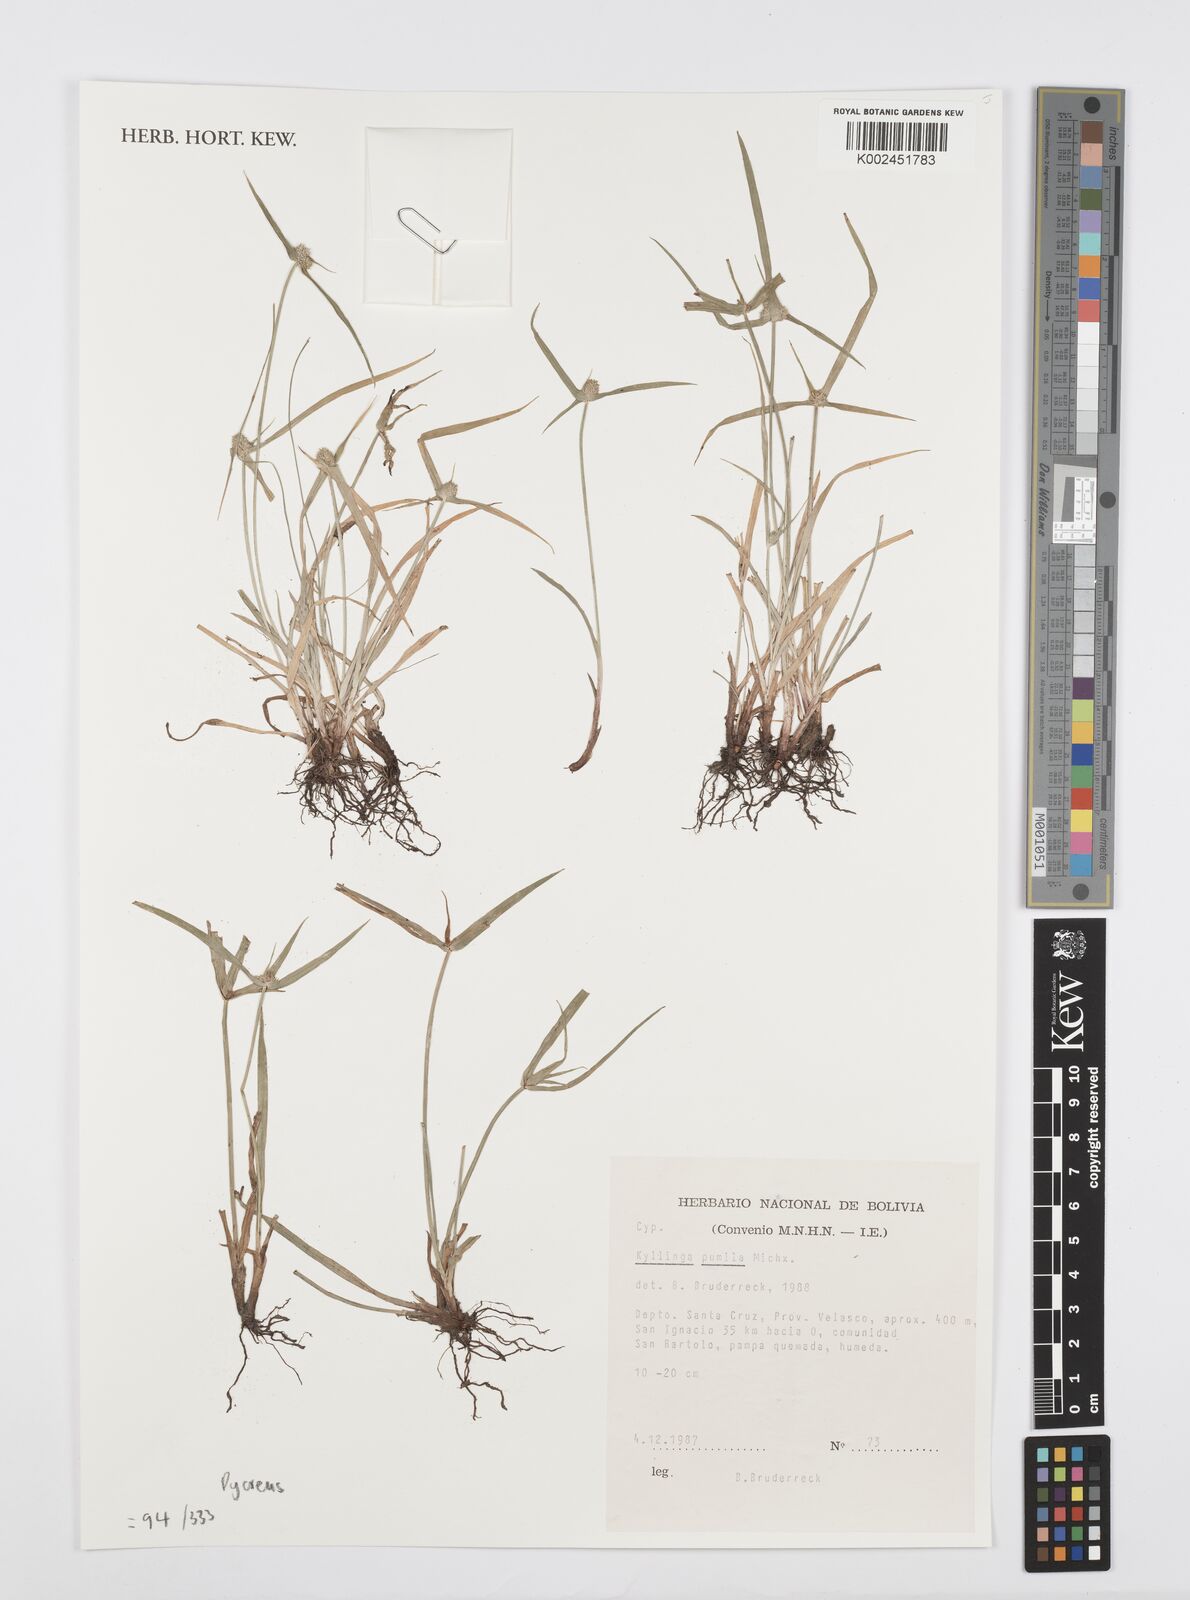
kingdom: Plantae
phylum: Tracheophyta
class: Liliopsida
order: Poales
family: Cyperaceae
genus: Cyperus
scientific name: Cyperus
